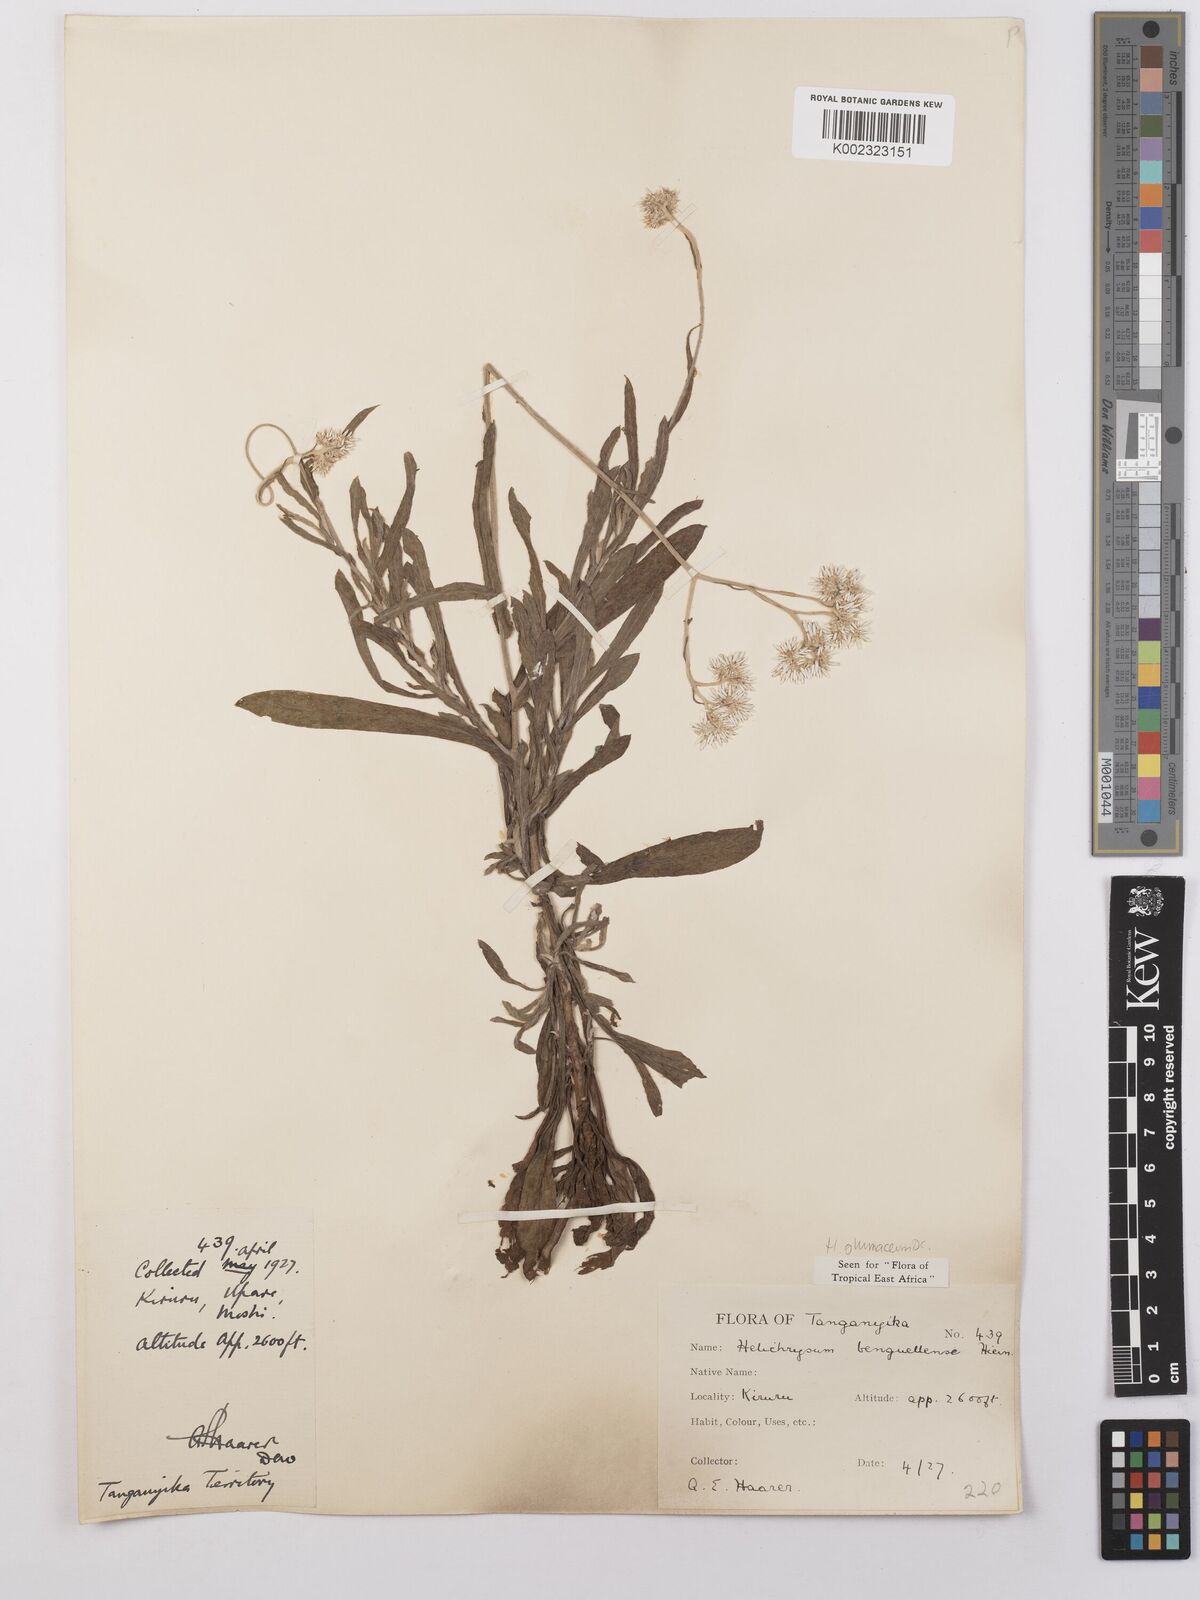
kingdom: Plantae
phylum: Tracheophyta
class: Magnoliopsida
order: Asterales
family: Asteraceae
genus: Helichrysum
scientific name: Helichrysum glumaceum
